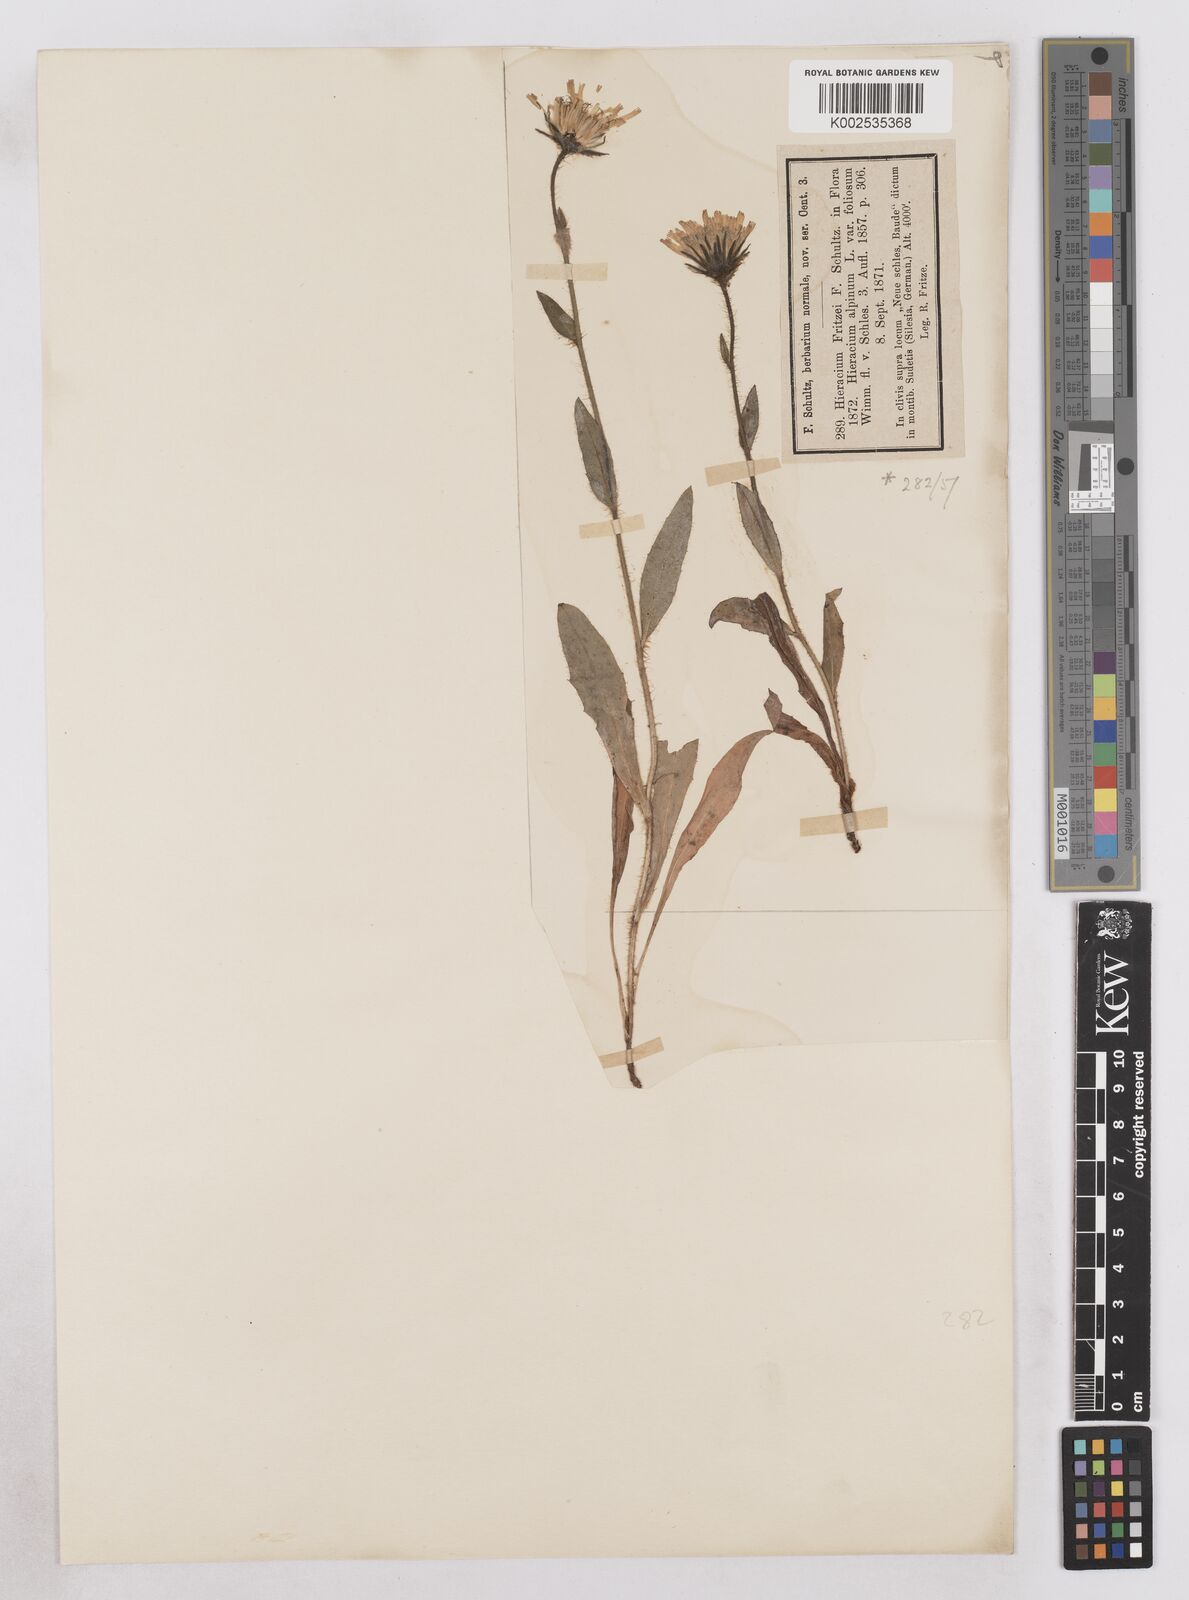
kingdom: Plantae
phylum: Tracheophyta
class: Magnoliopsida
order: Asterales
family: Asteraceae
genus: Hieracium
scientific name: Hieracium fritzei
